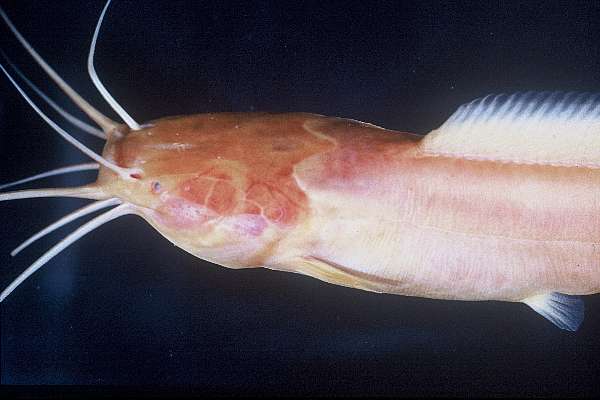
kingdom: Animalia
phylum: Chordata
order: Siluriformes
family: Clariidae
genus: Clarias
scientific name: Clarias cavernicola
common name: Cave catfish
